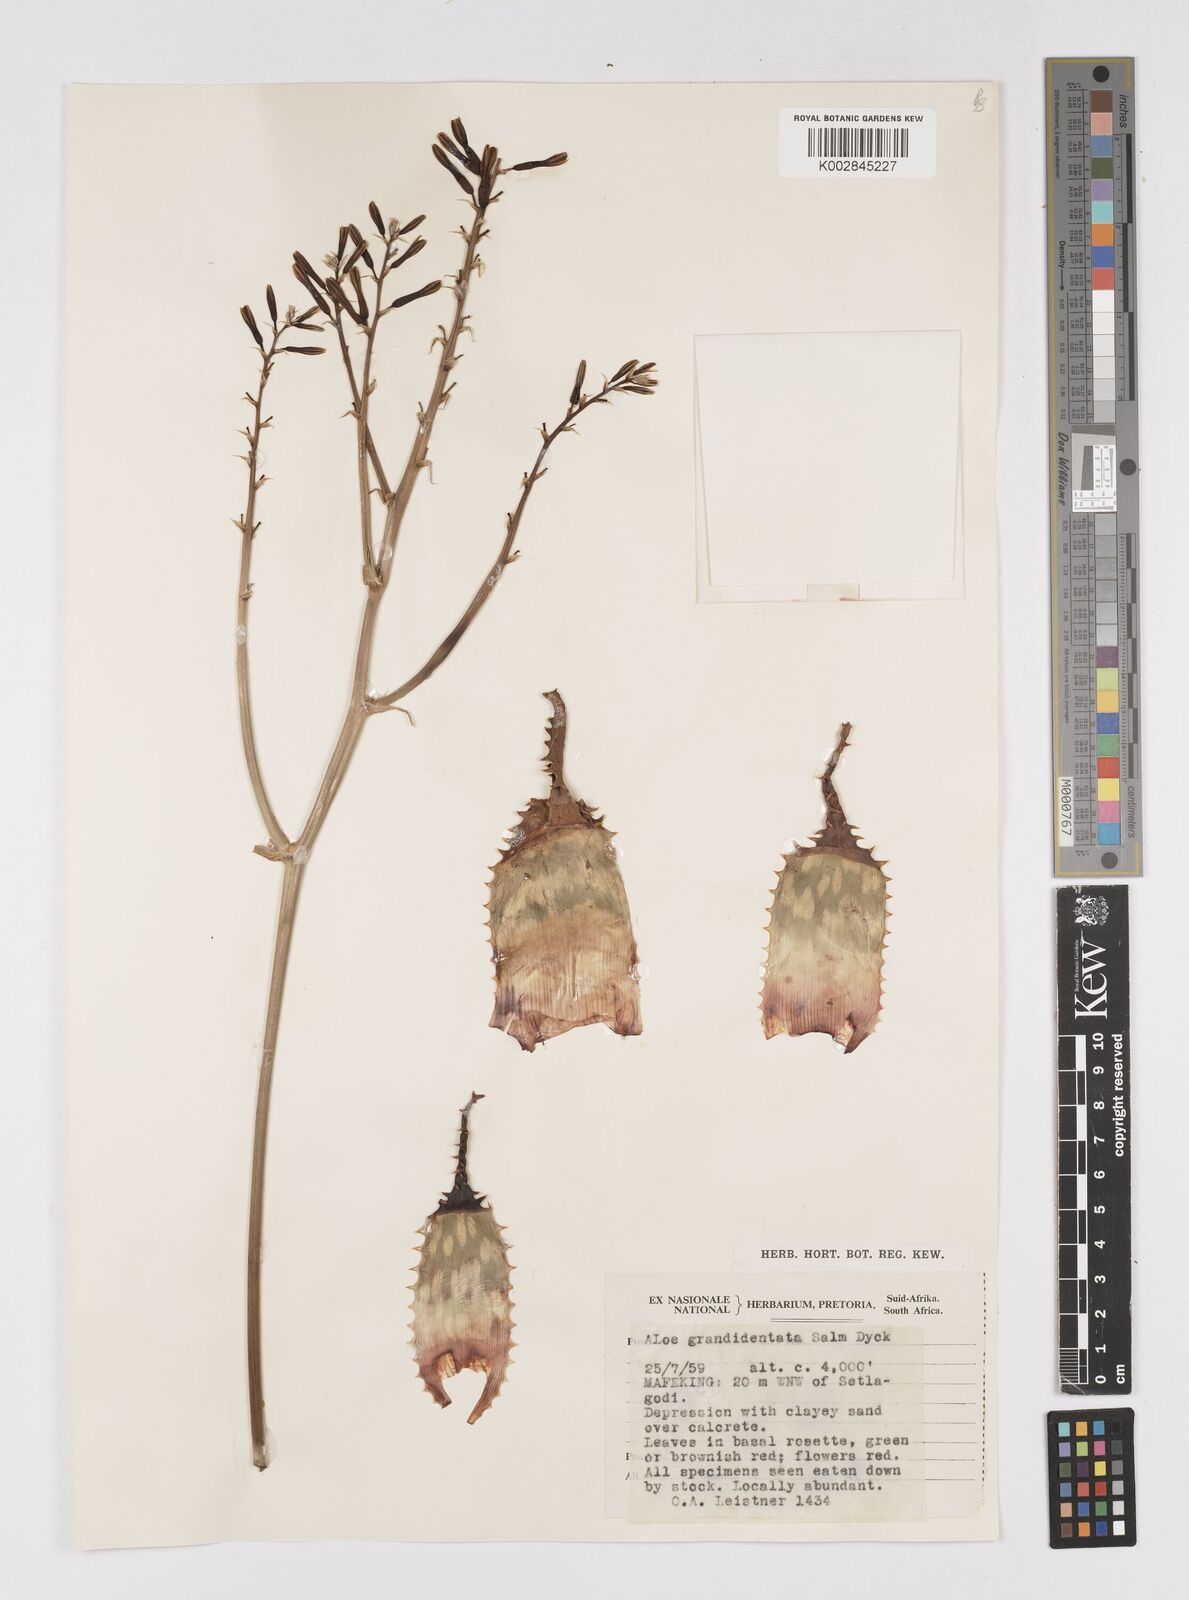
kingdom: Plantae
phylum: Tracheophyta
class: Liliopsida
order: Asparagales
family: Asphodelaceae
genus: Aloe
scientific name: Aloe grandidentata
